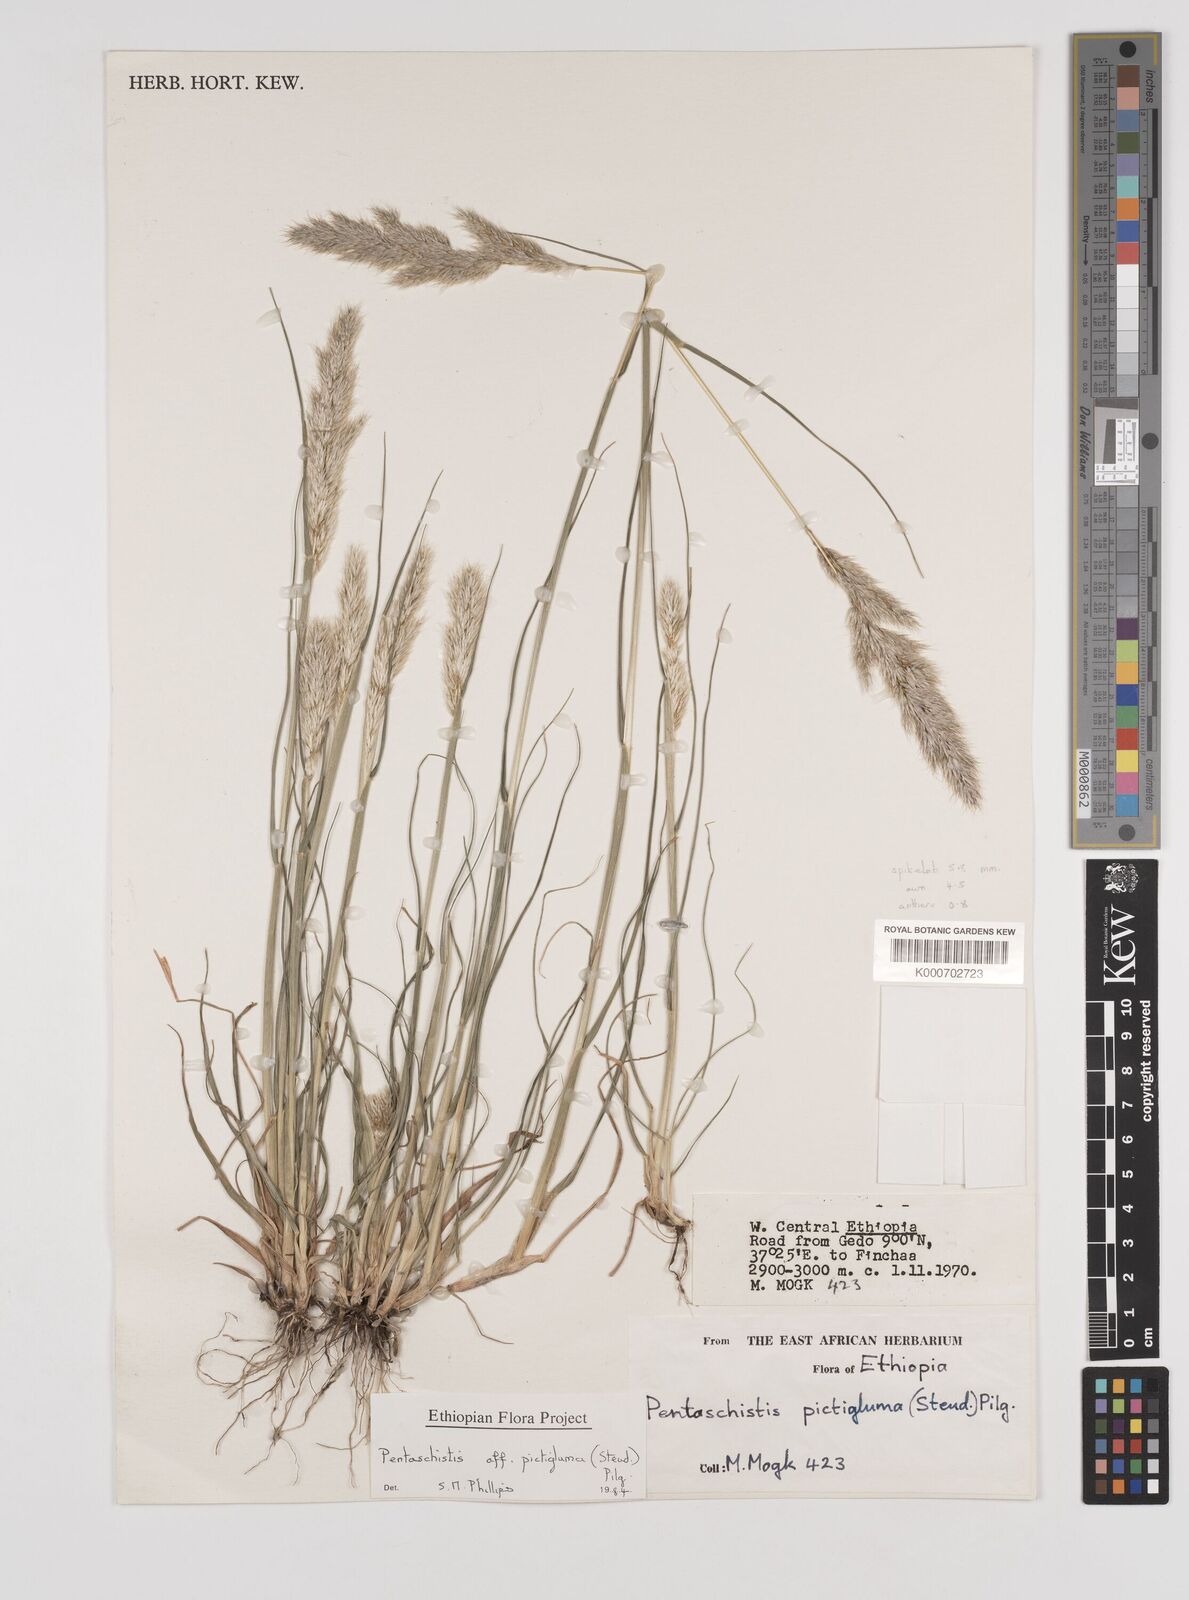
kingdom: Plantae
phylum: Tracheophyta
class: Liliopsida
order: Poales
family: Poaceae
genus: Pentameris
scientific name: Pentameris pictigluma
